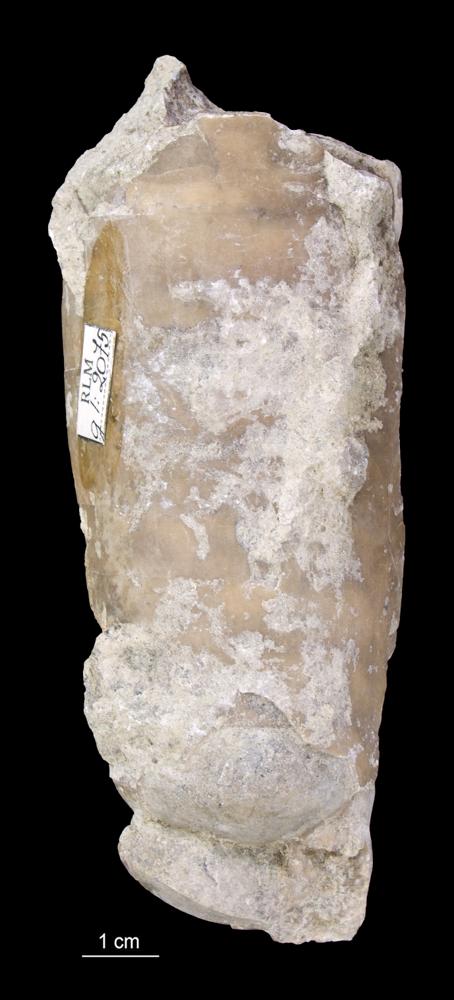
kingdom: Animalia
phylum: Mollusca
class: Cephalopoda
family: Endoceratidae
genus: Endoceras
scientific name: Endoceras
